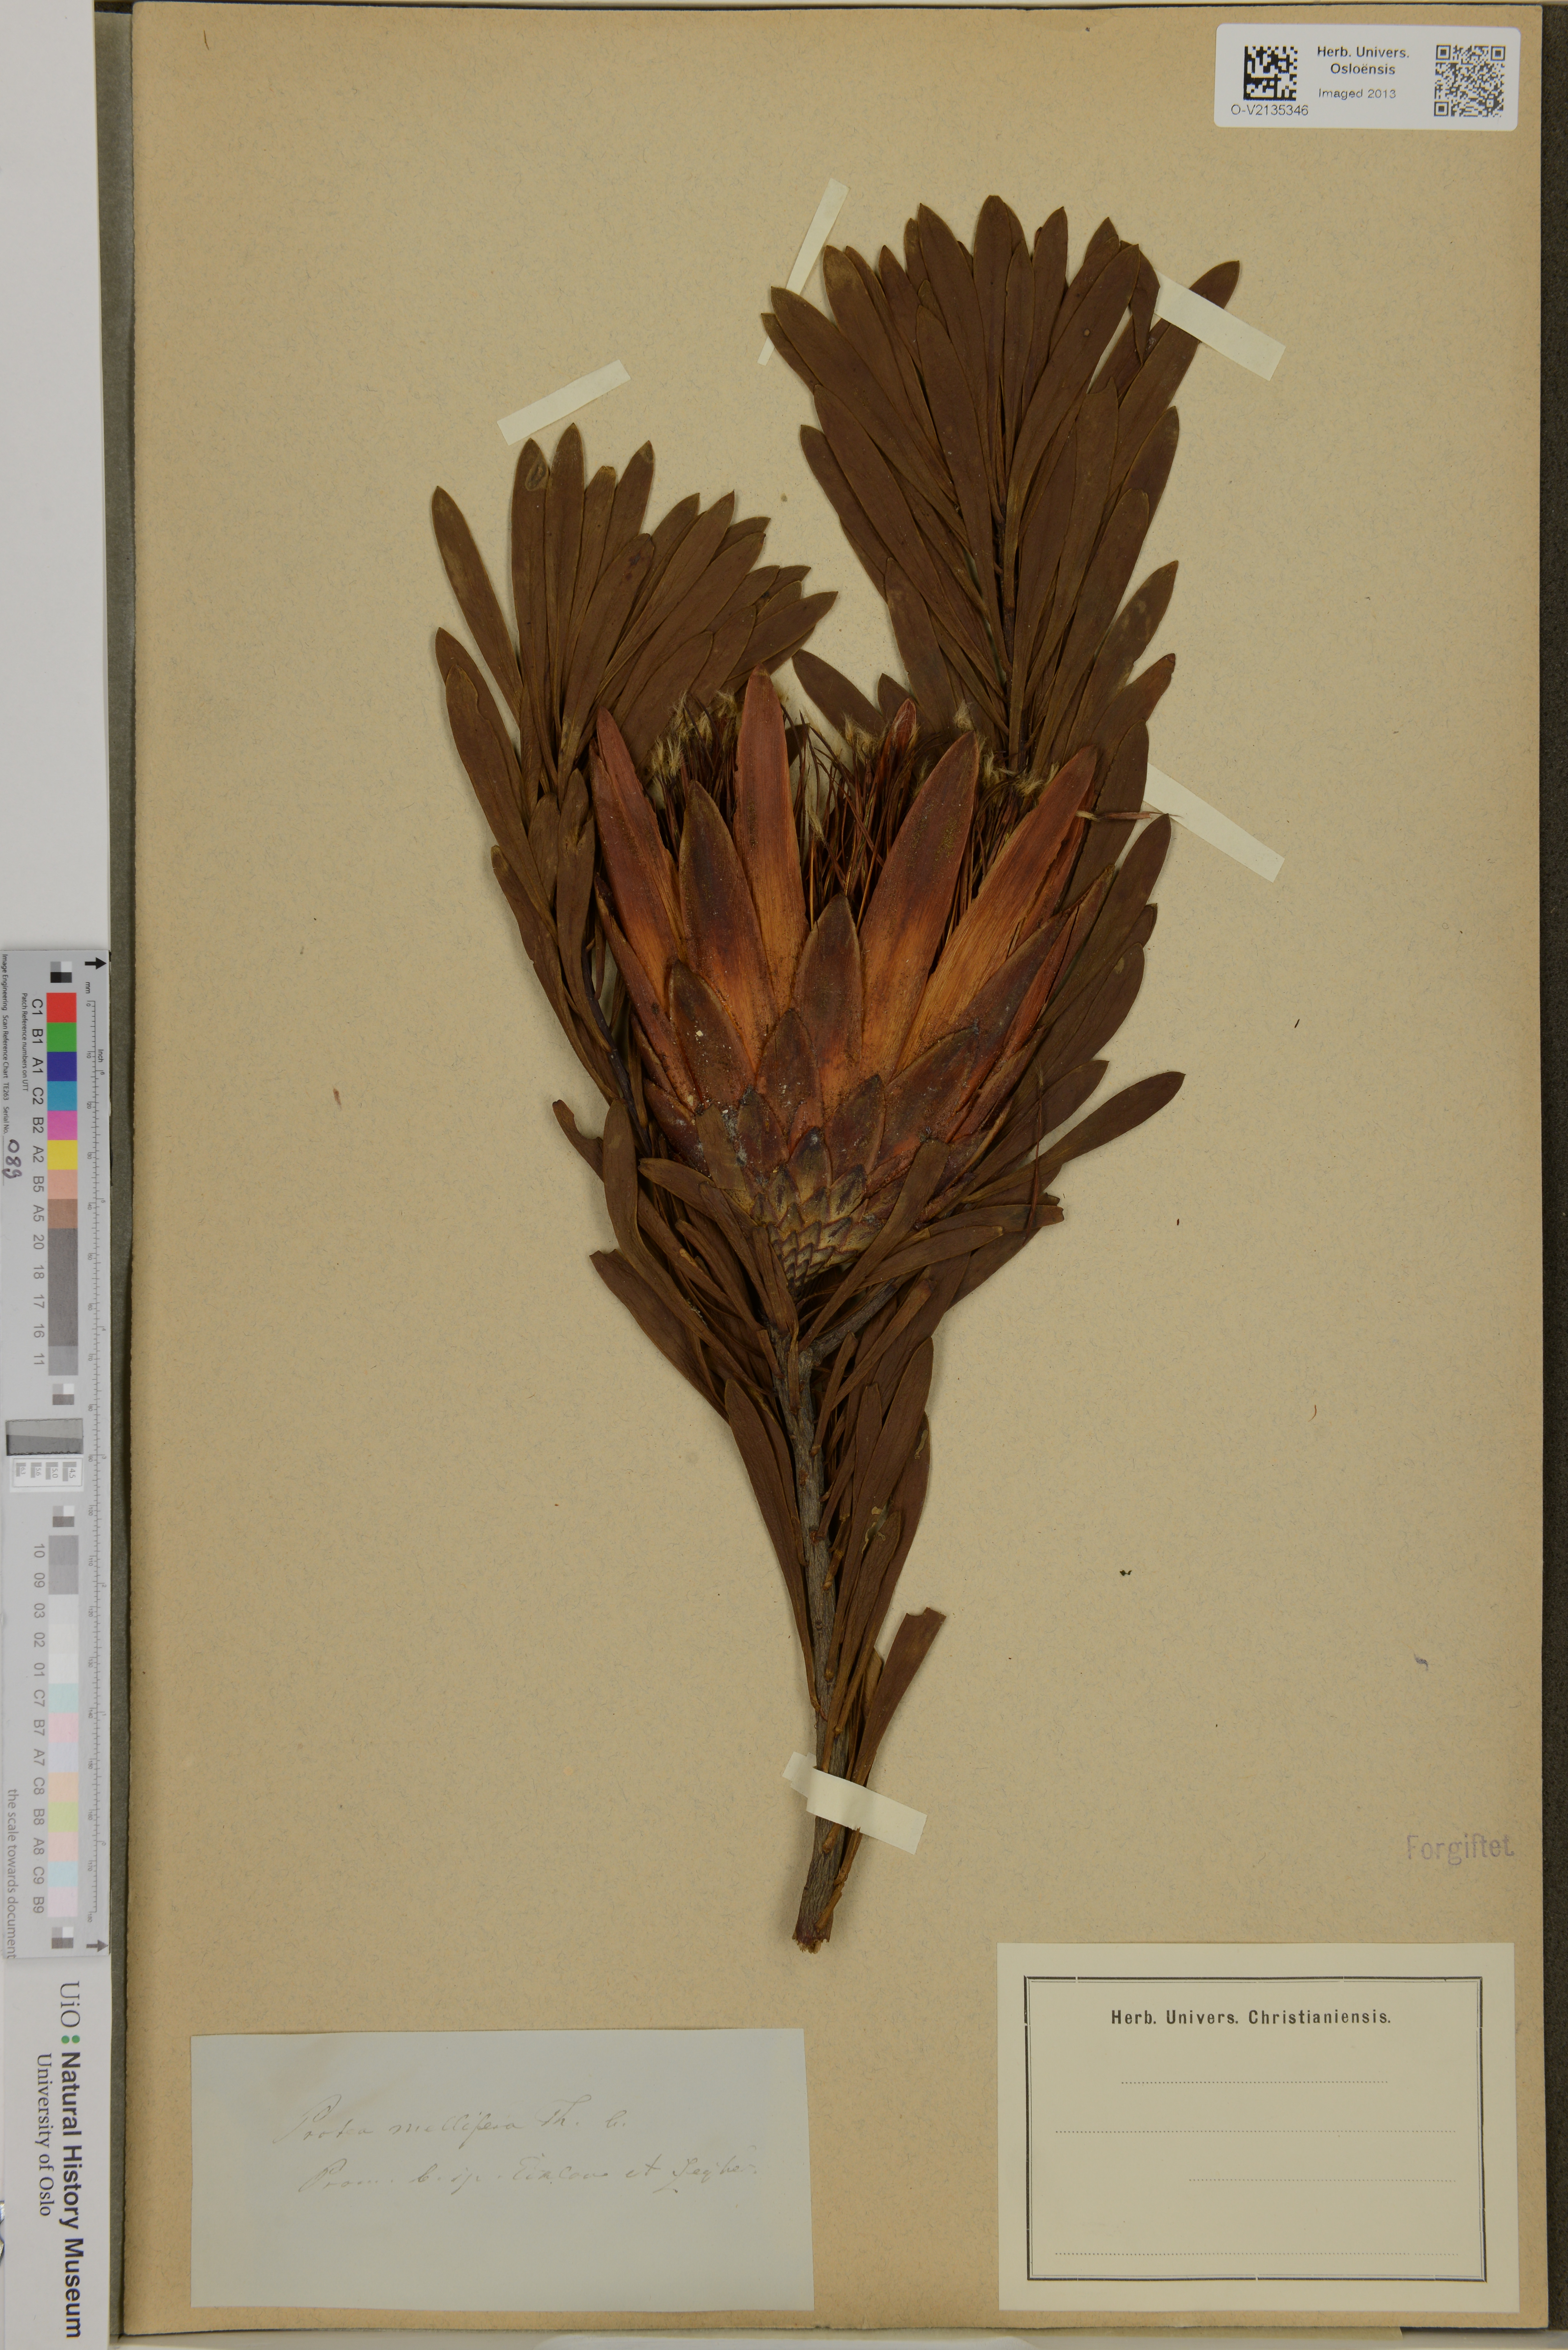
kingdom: Plantae
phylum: Tracheophyta
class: Magnoliopsida
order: Proteales
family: Proteaceae
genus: Protea
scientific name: Protea repens
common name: Sugarbush
